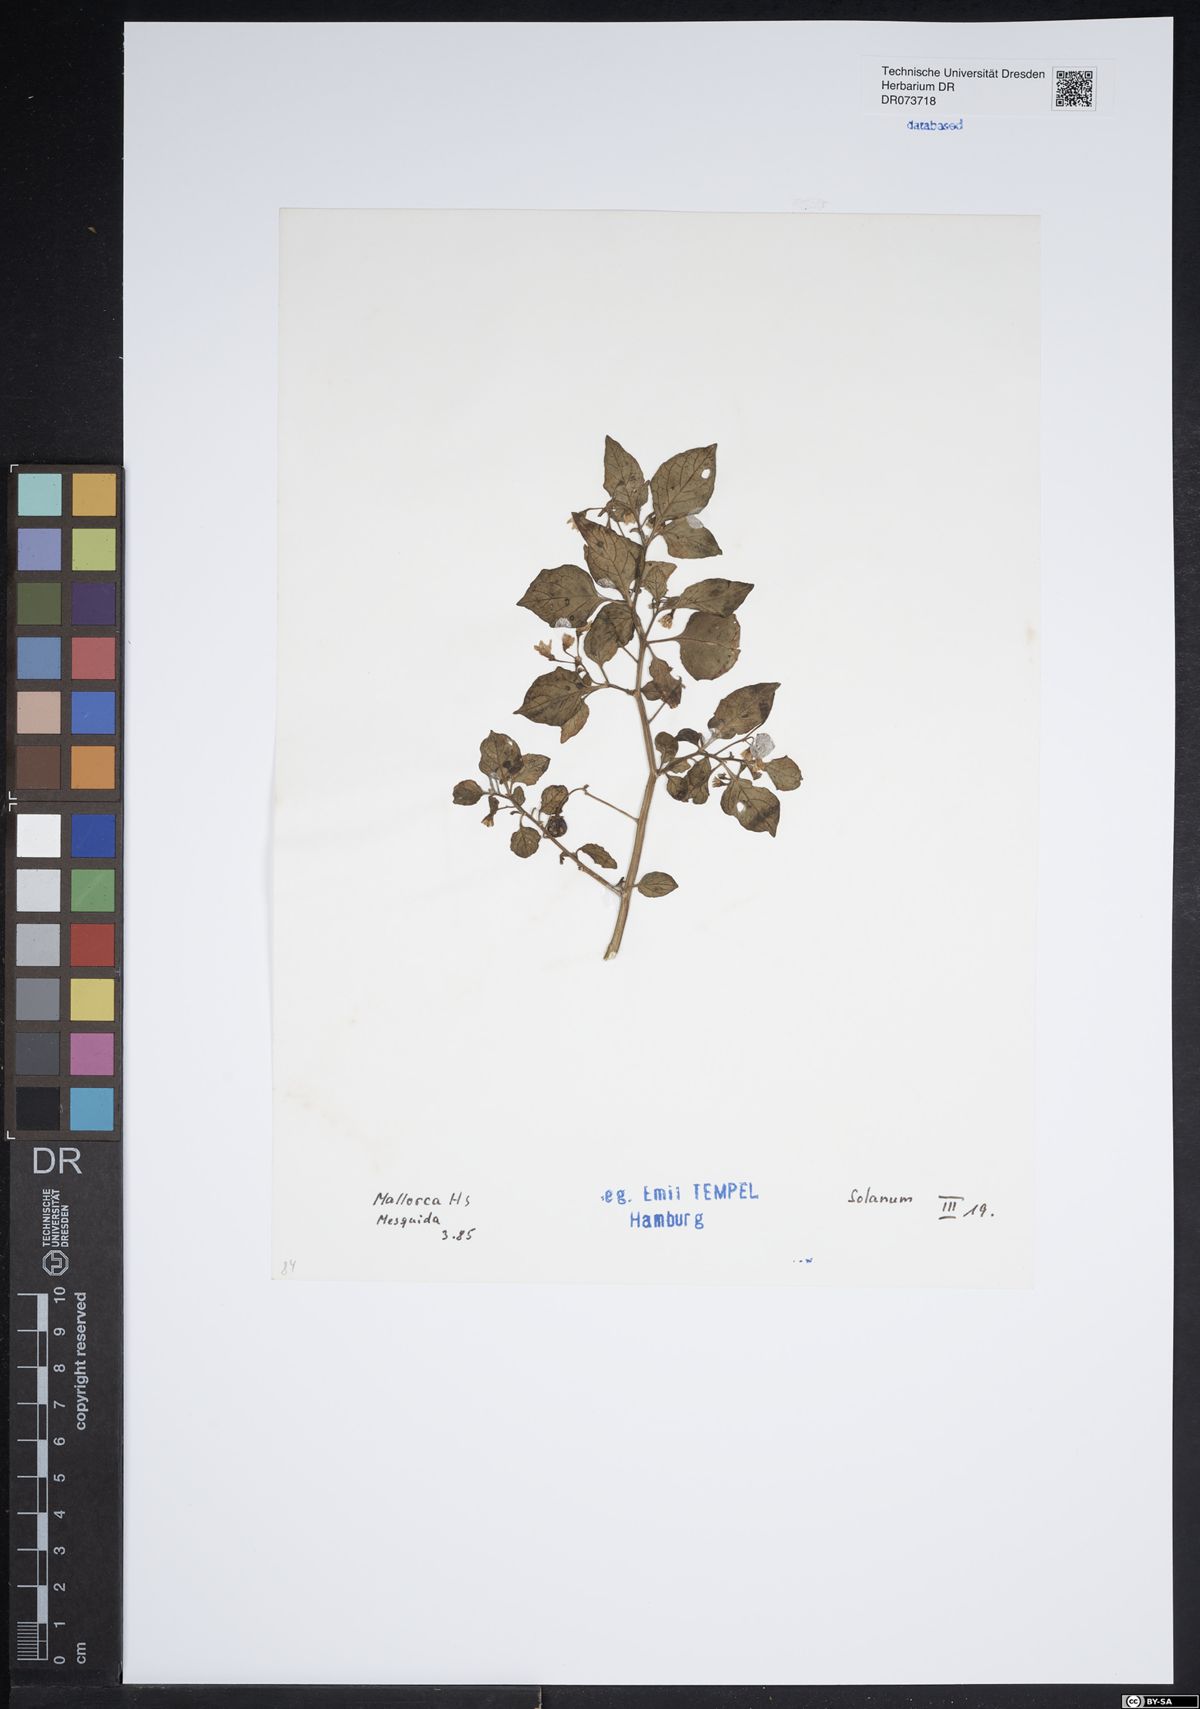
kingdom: Plantae
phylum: Tracheophyta
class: Magnoliopsida
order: Solanales
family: Solanaceae
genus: Solanum
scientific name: Solanum
